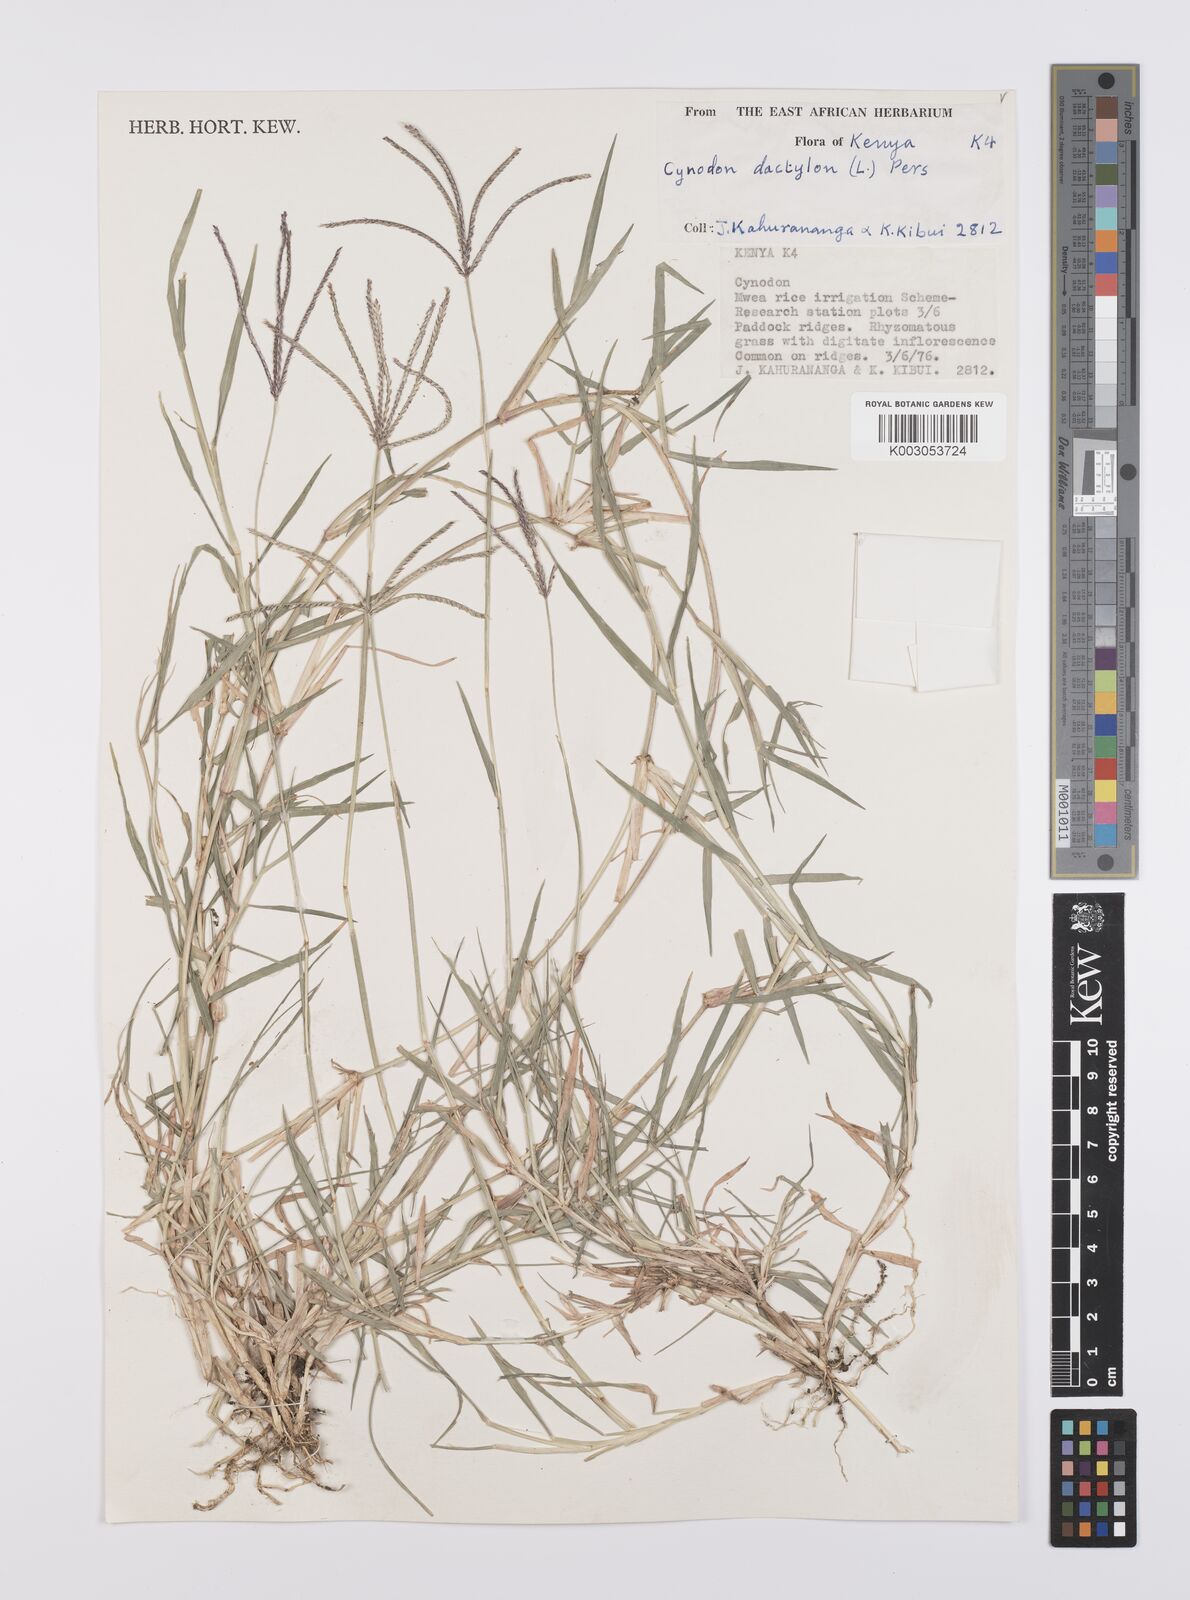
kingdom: Plantae
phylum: Tracheophyta
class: Liliopsida
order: Poales
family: Poaceae
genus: Cynodon
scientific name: Cynodon dactylon
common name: Bermuda grass
